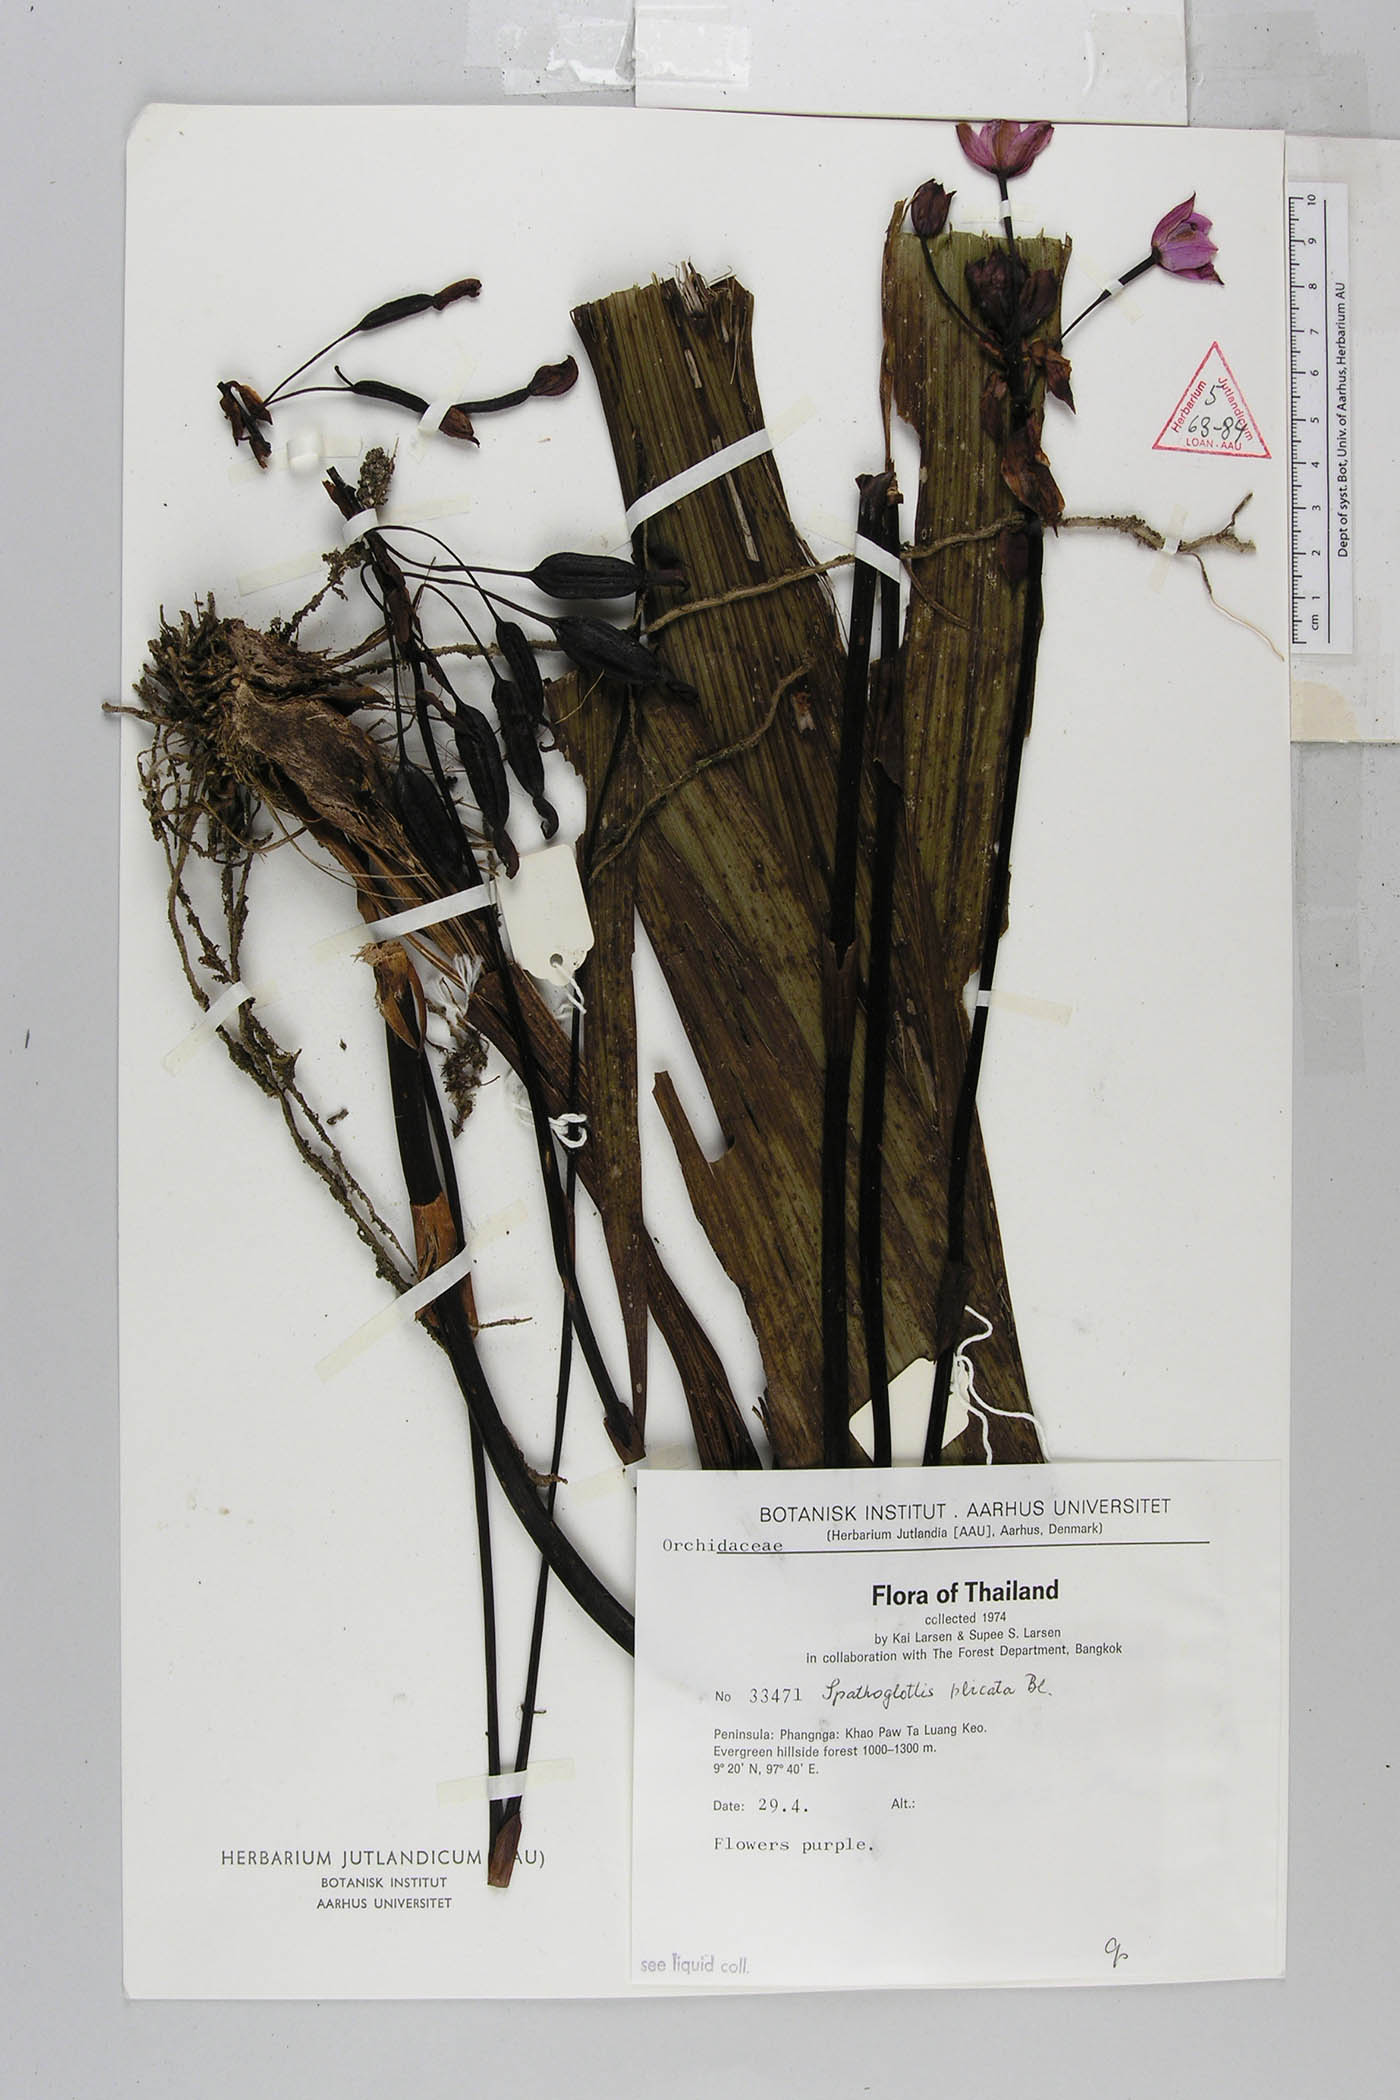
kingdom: Plantae
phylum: Tracheophyta
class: Liliopsida
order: Asparagales
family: Orchidaceae
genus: Spathoglottis
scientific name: Spathoglottis plicata
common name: Philippine ground orchid
